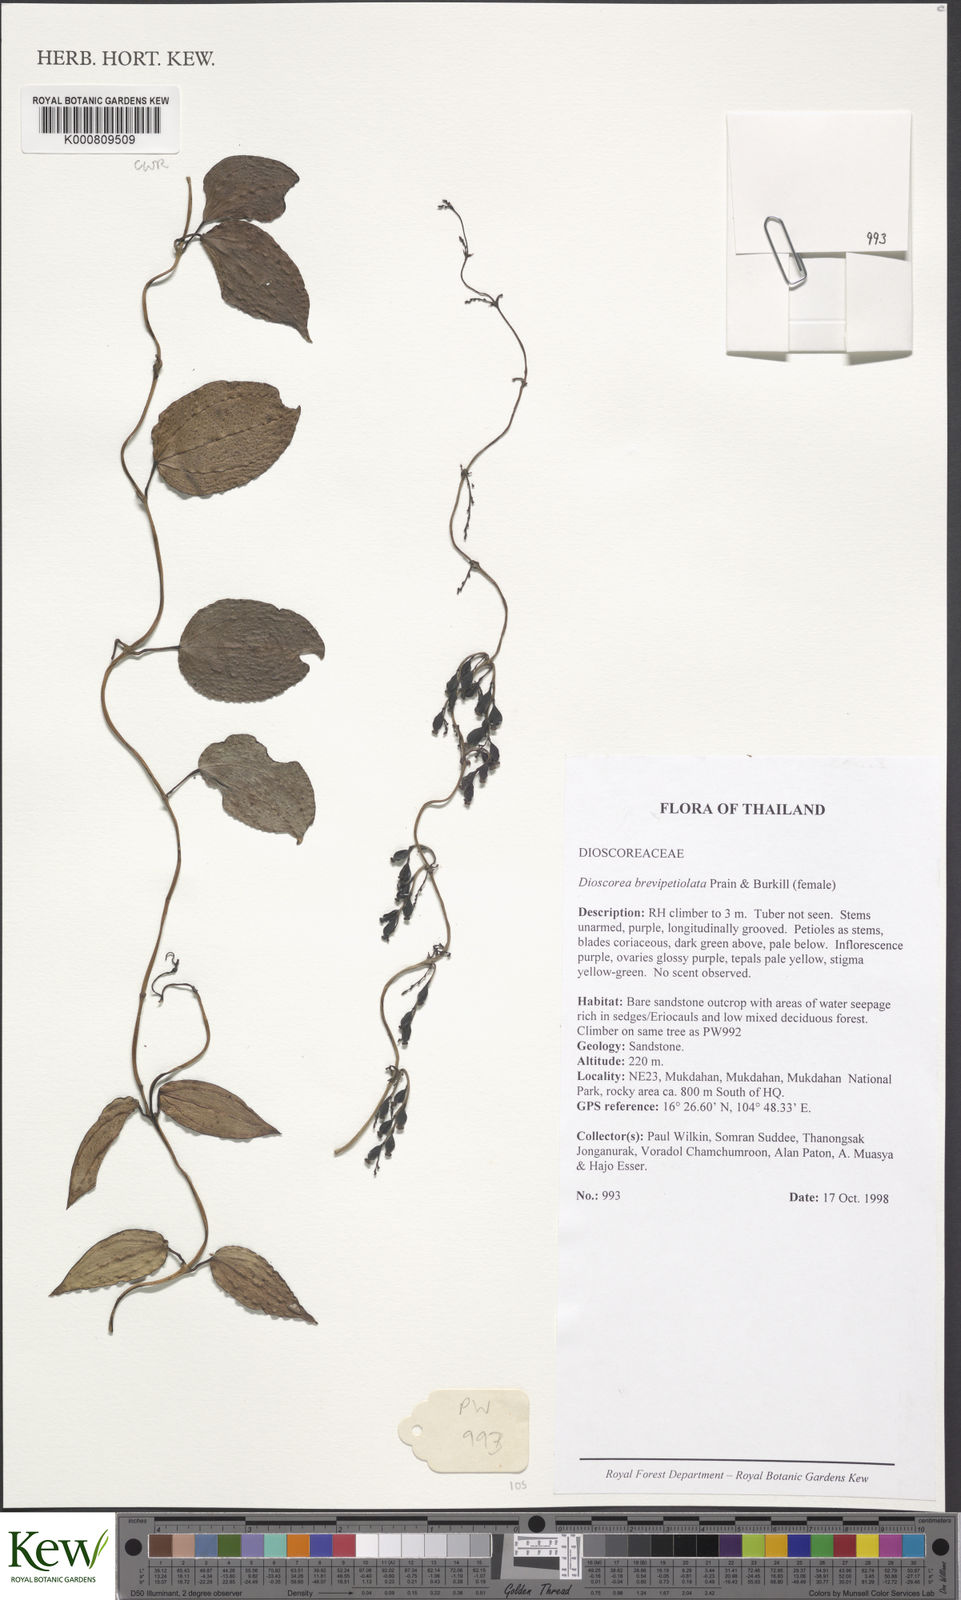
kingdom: Plantae
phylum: Tracheophyta
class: Liliopsida
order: Dioscoreales
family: Dioscoreaceae
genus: Dioscorea
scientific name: Dioscorea brevipetiolata
